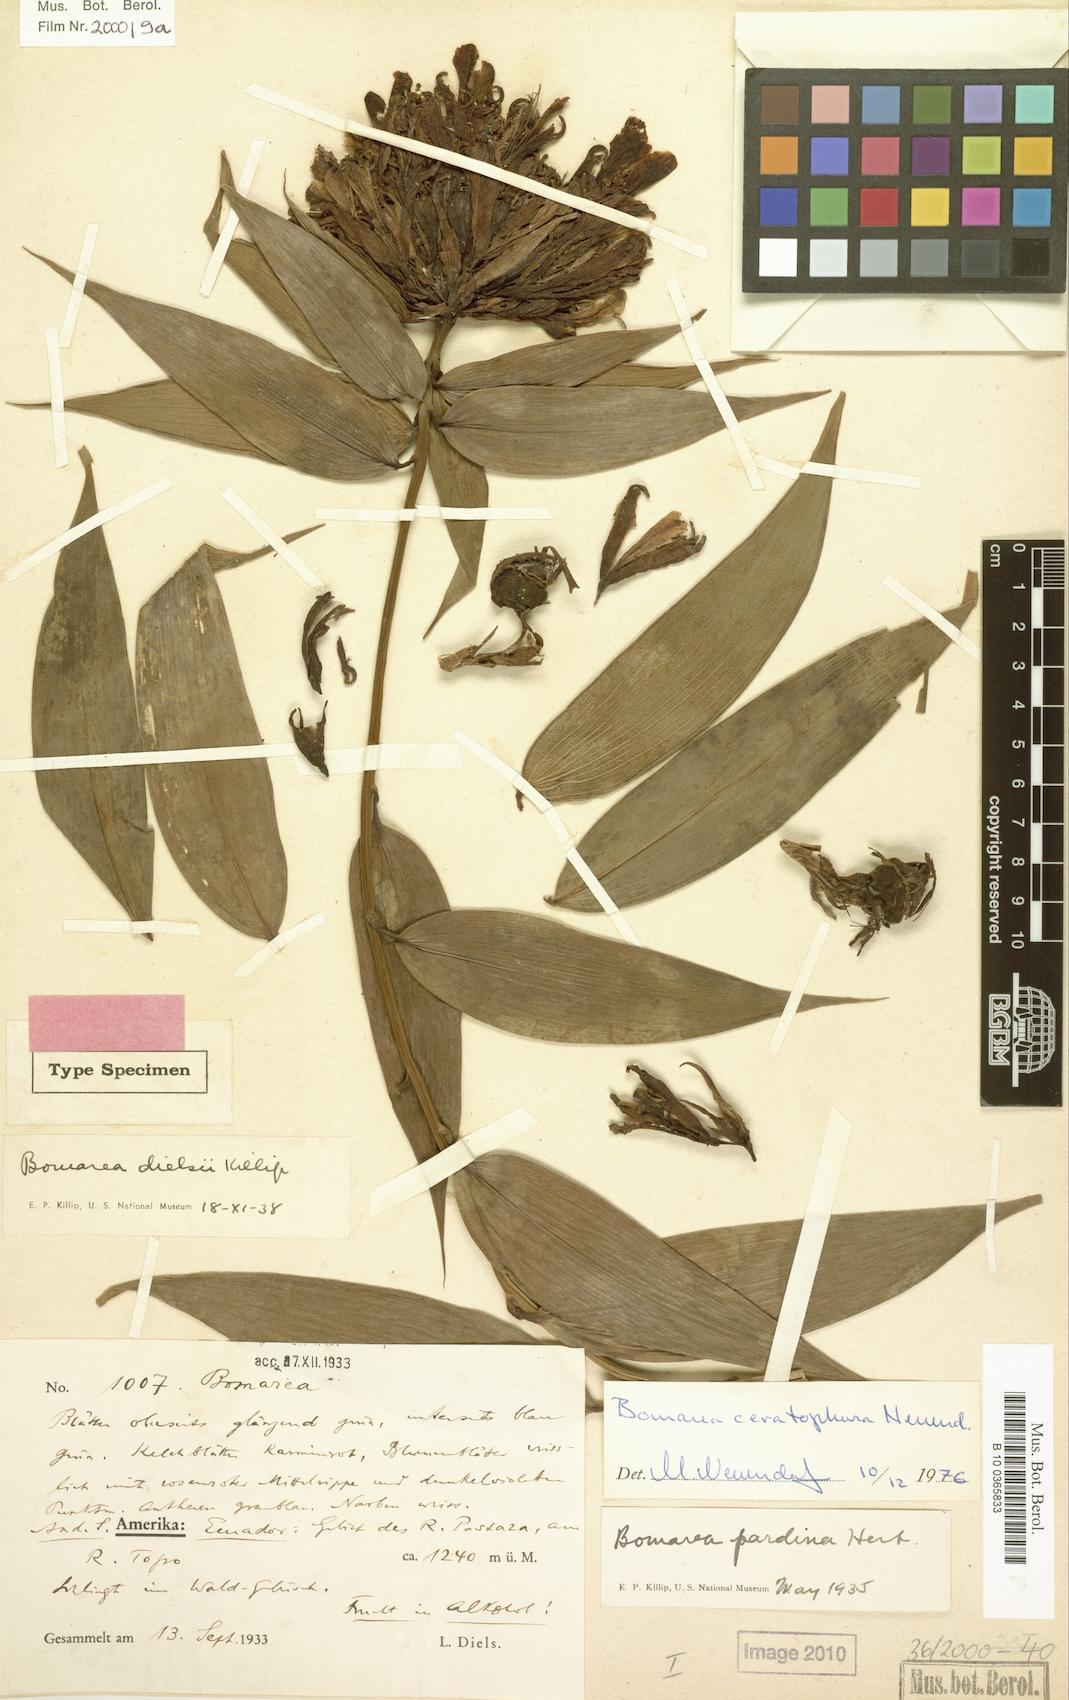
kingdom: Plantae
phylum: Tracheophyta
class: Liliopsida
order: Liliales
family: Alstroemeriaceae
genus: Bomarea
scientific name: Bomarea ceratophora
